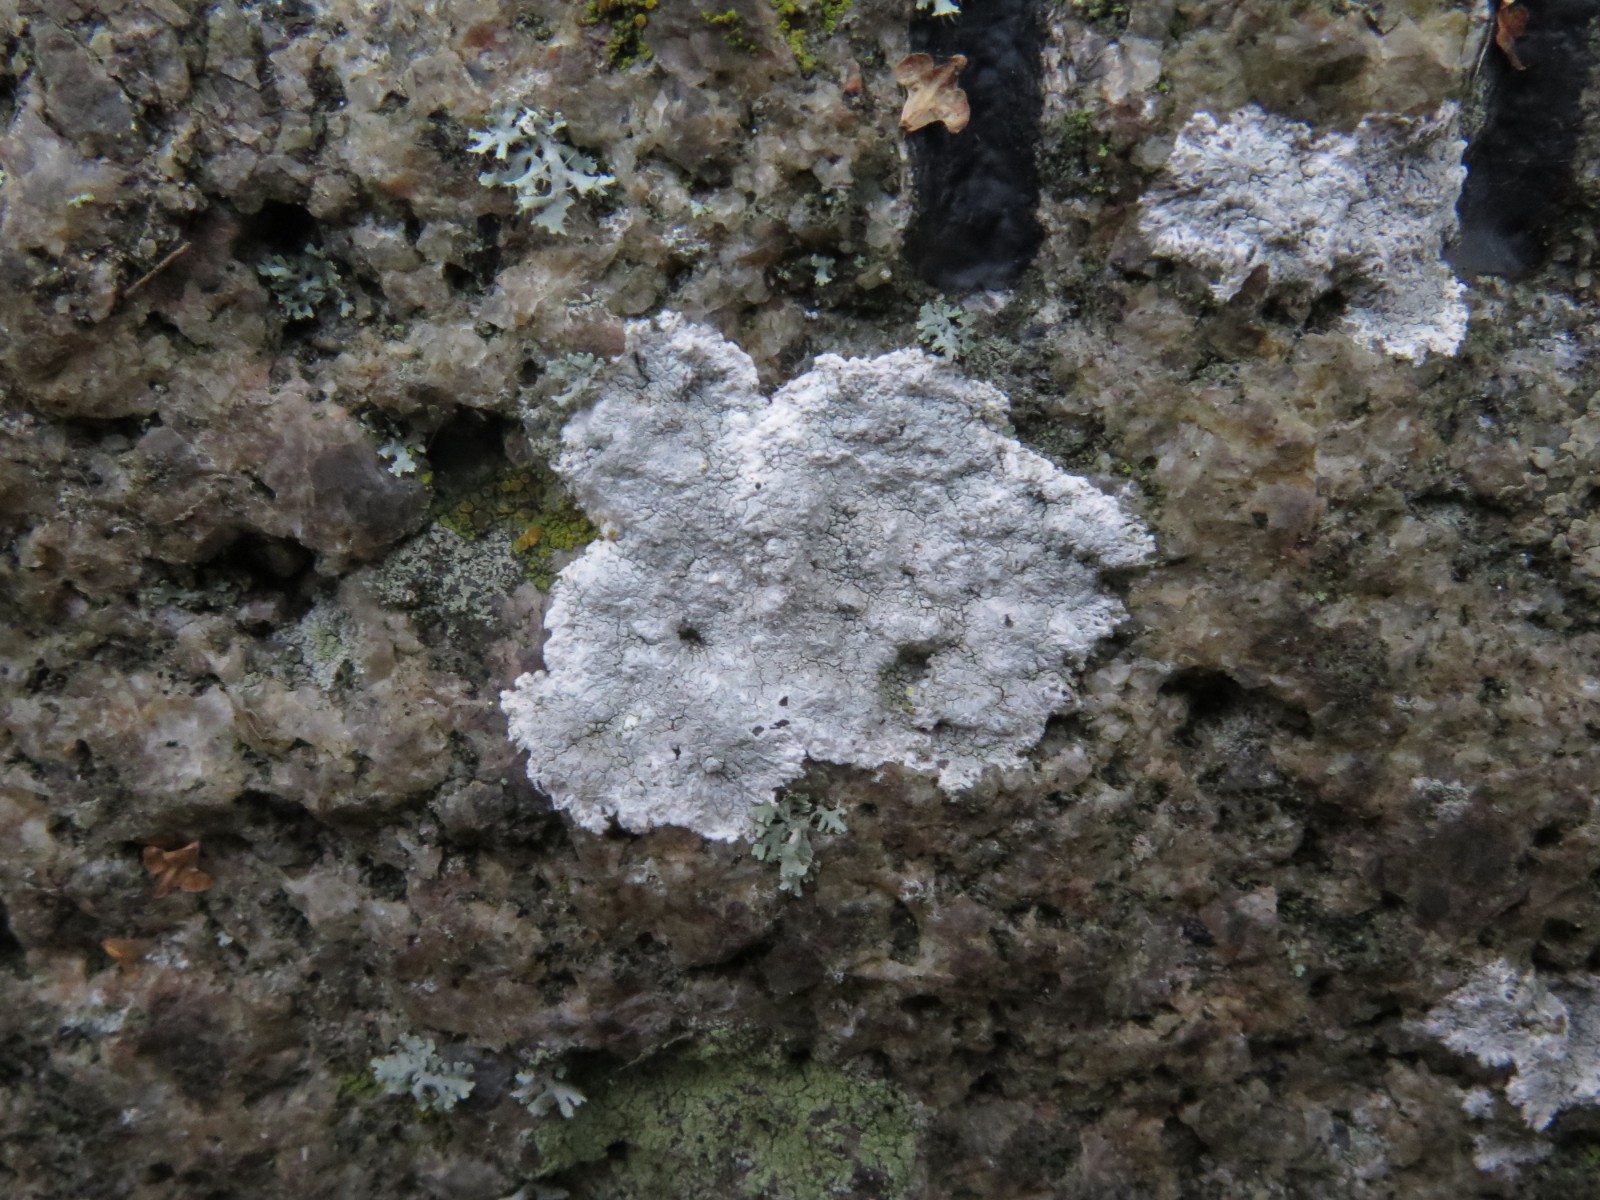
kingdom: Fungi
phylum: Ascomycota
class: Lecanoromycetes
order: Lecanorales
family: Lecanoraceae
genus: Glaucomaria
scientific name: Glaucomaria rupicola
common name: stengærde-kantskivelav
